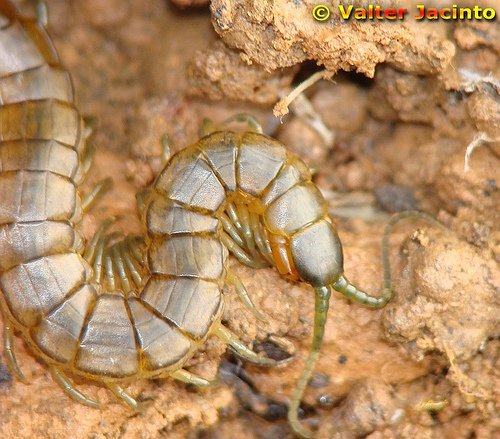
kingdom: Animalia
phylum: Arthropoda
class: Chilopoda
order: Scolopendromorpha
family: Scolopendridae
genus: Scolopendra
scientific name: Scolopendra oraniensis
